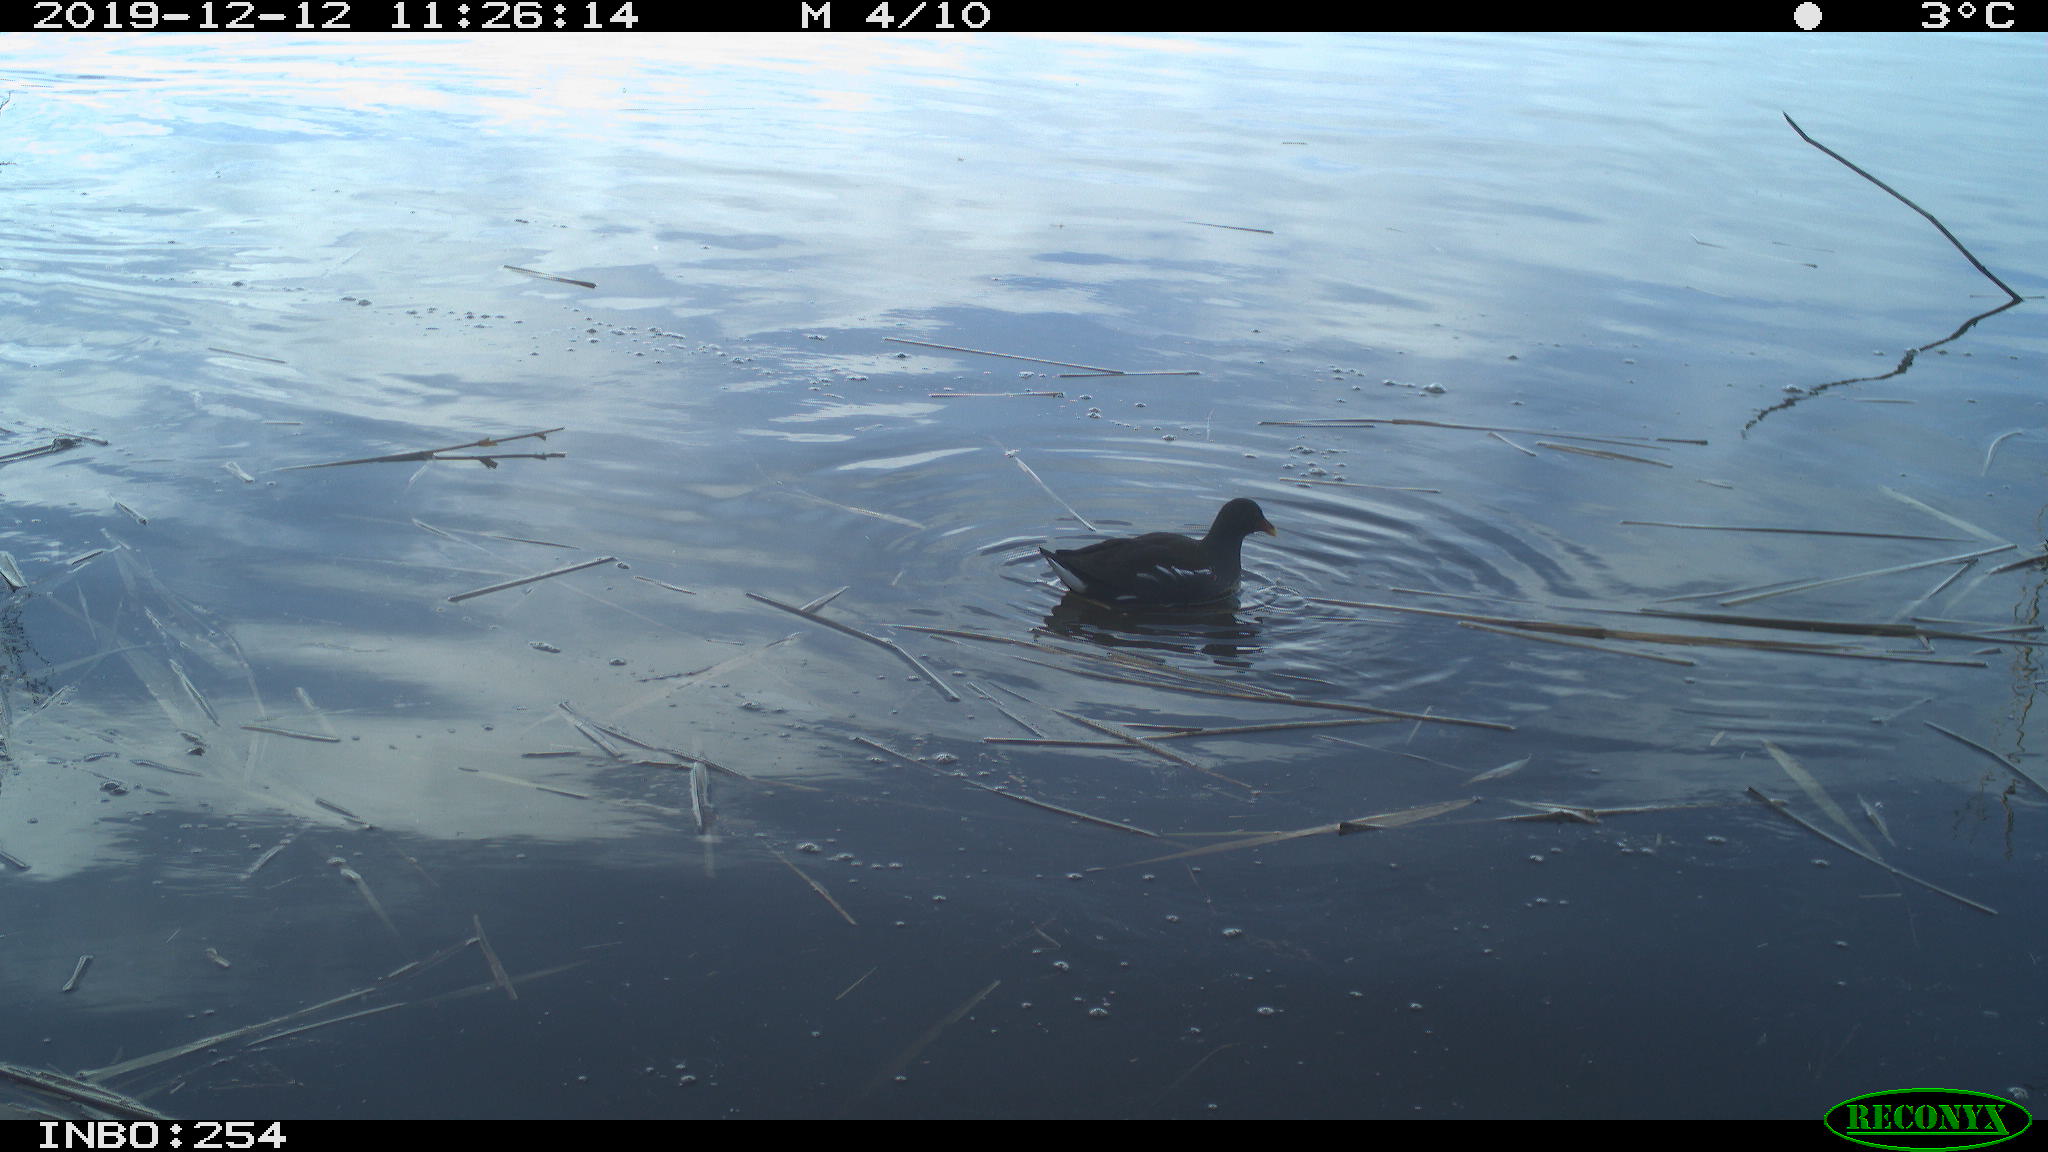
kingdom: Animalia
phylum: Chordata
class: Aves
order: Gruiformes
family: Rallidae
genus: Gallinula
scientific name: Gallinula chloropus
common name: Common moorhen
